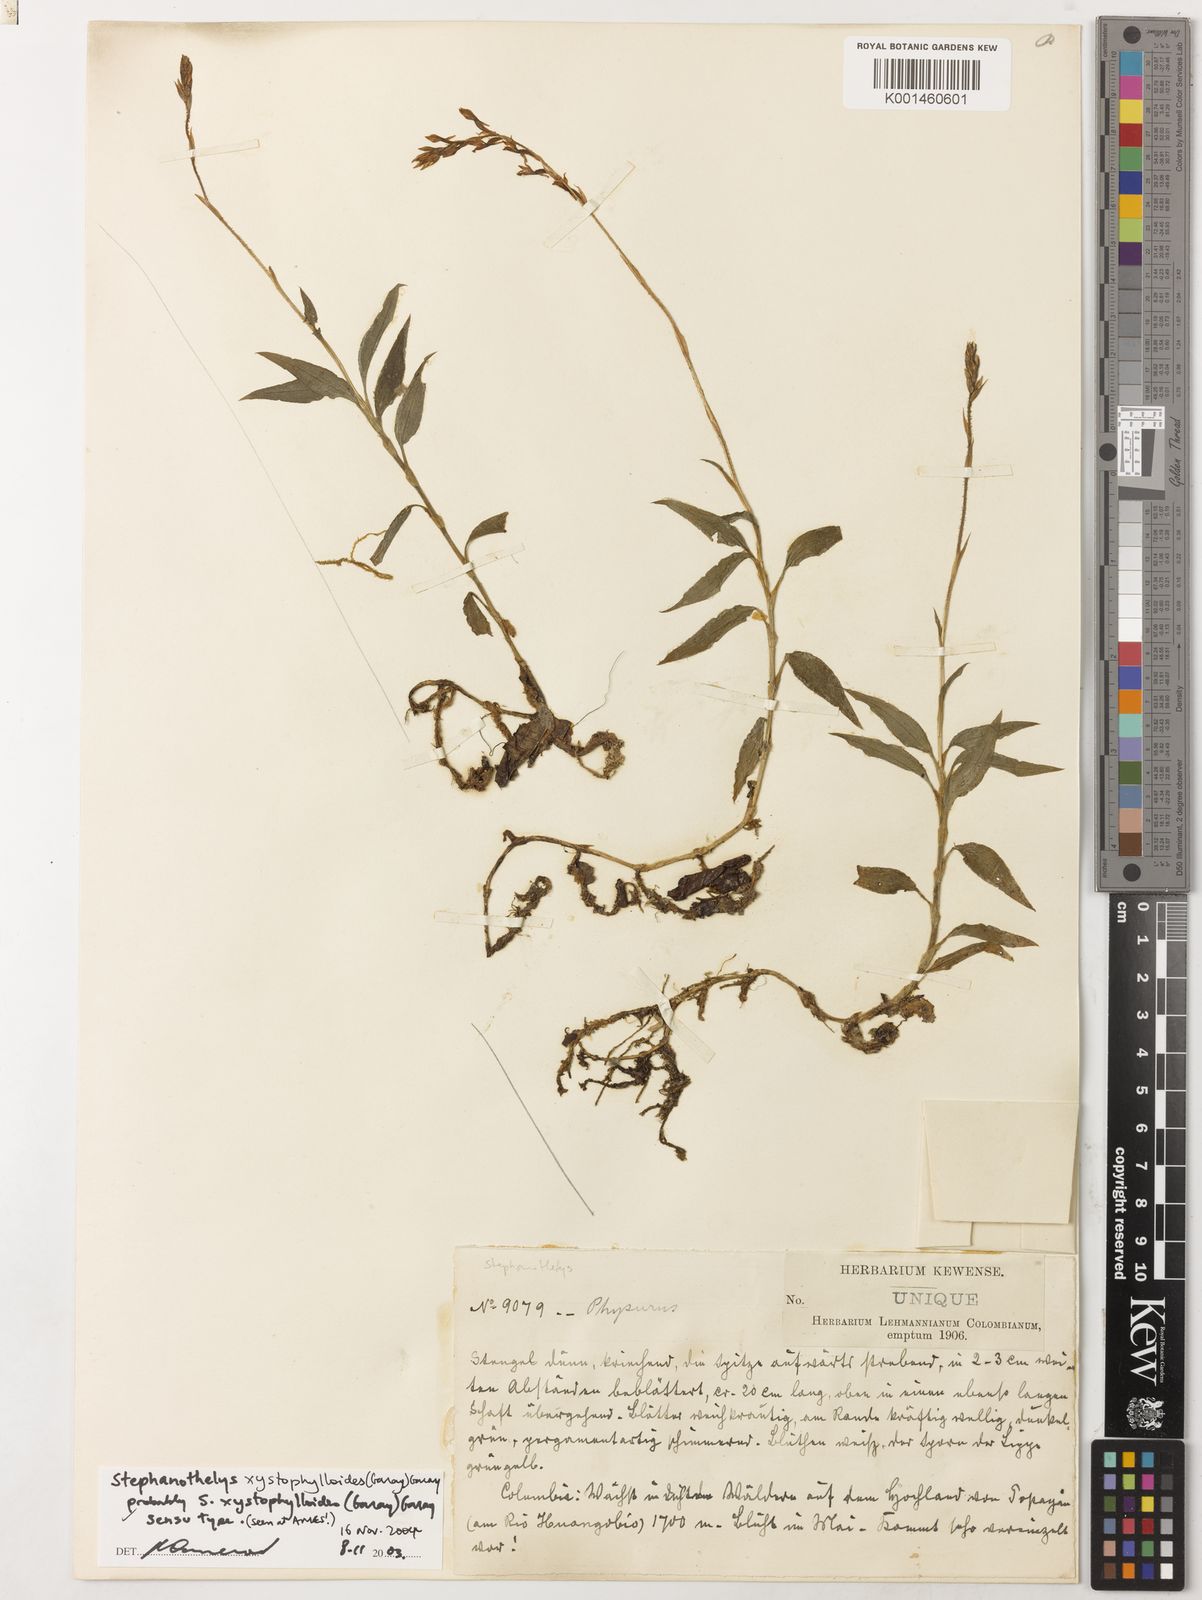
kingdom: Plantae
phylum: Tracheophyta
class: Liliopsida
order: Asparagales
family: Orchidaceae
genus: Stephanothelys
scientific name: Stephanothelys xystophylloides
